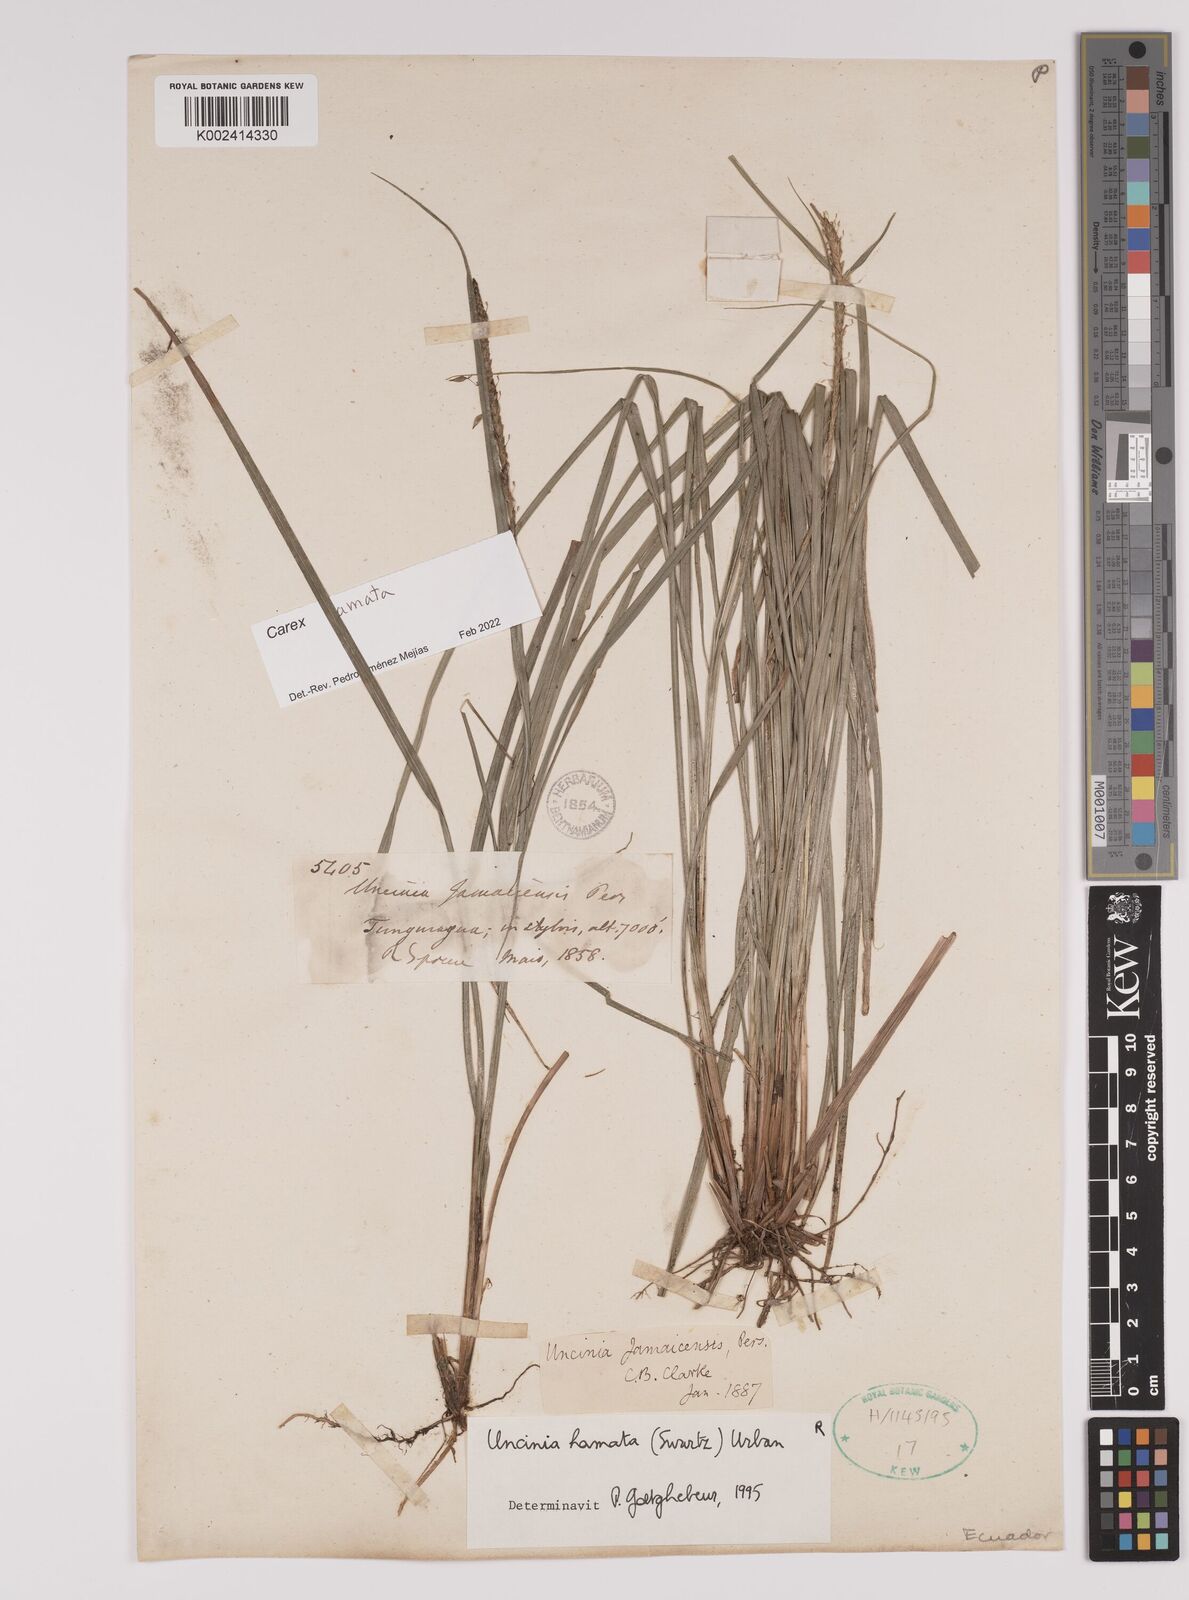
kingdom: Plantae
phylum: Tracheophyta
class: Liliopsida
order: Poales
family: Cyperaceae
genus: Carex
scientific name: Carex hamata
